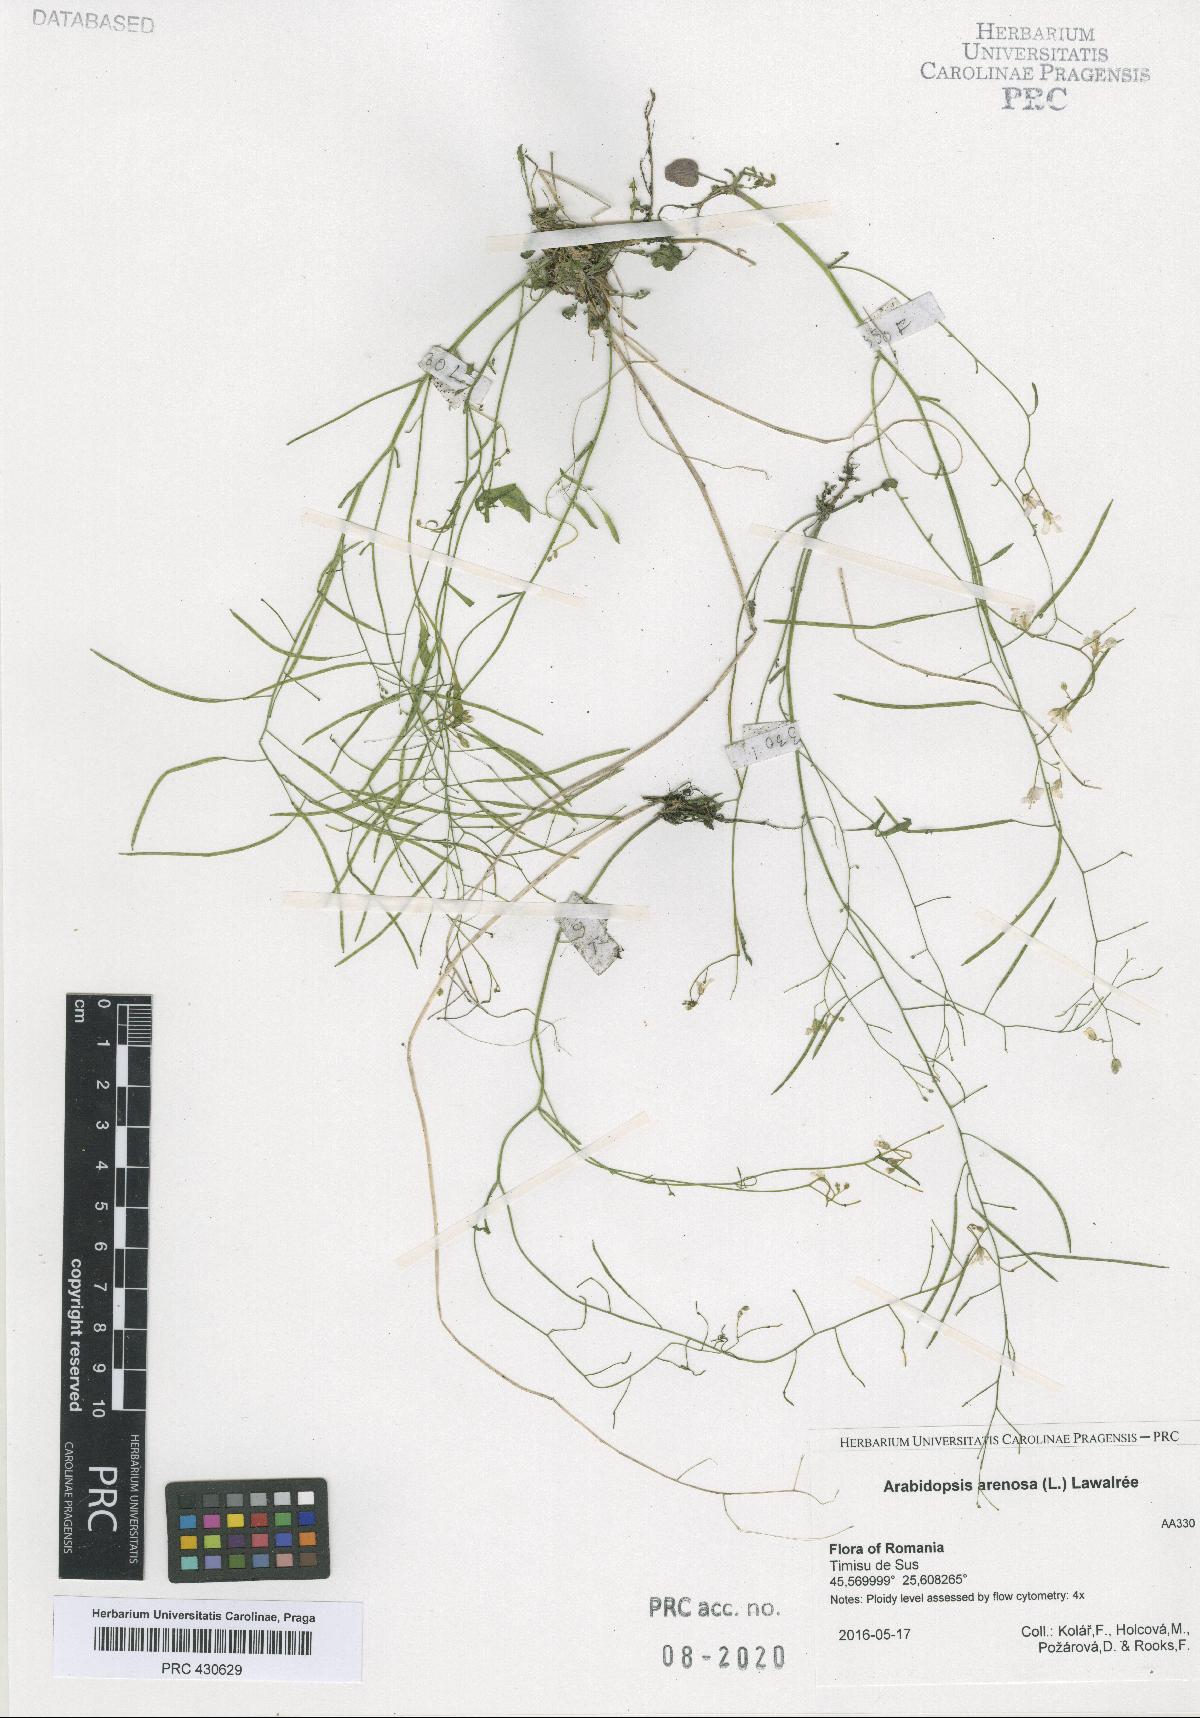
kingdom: Plantae
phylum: Tracheophyta
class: Magnoliopsida
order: Brassicales
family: Brassicaceae
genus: Arabidopsis
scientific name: Arabidopsis arenosa
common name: Sand rock-cress
